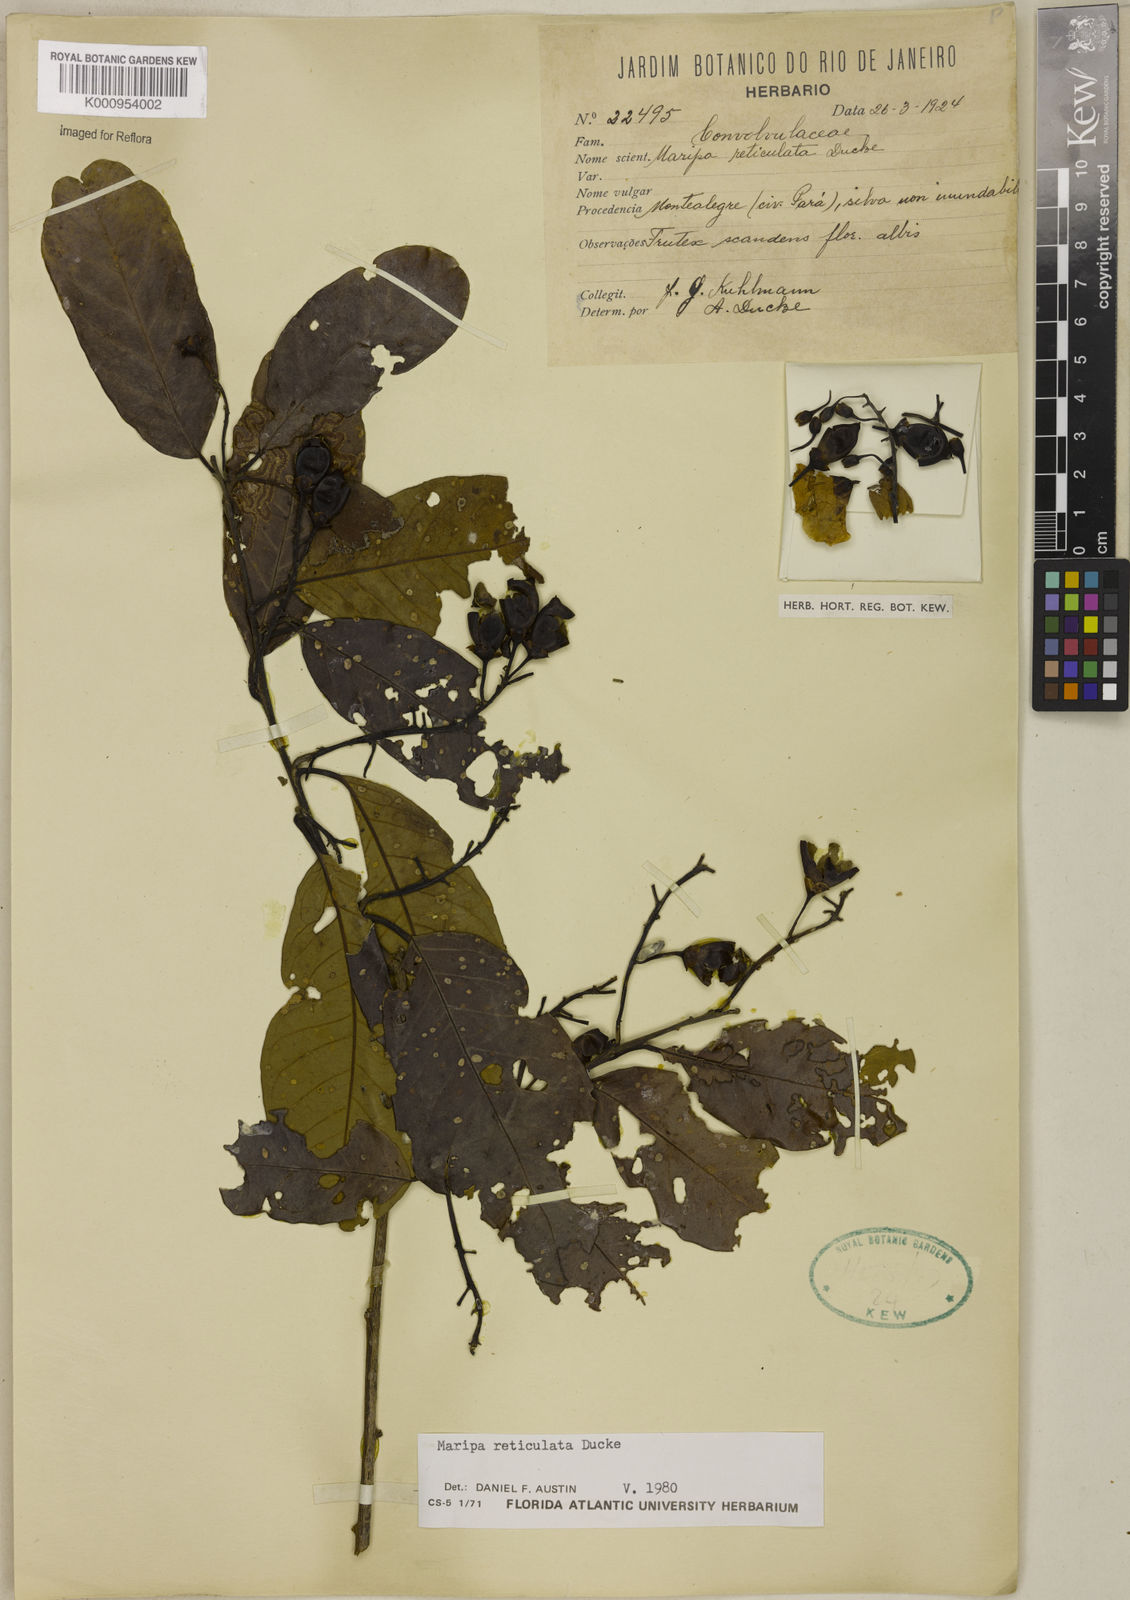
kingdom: Plantae
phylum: Tracheophyta
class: Magnoliopsida
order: Solanales
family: Convolvulaceae
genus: Maripa
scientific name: Maripa reticulata
